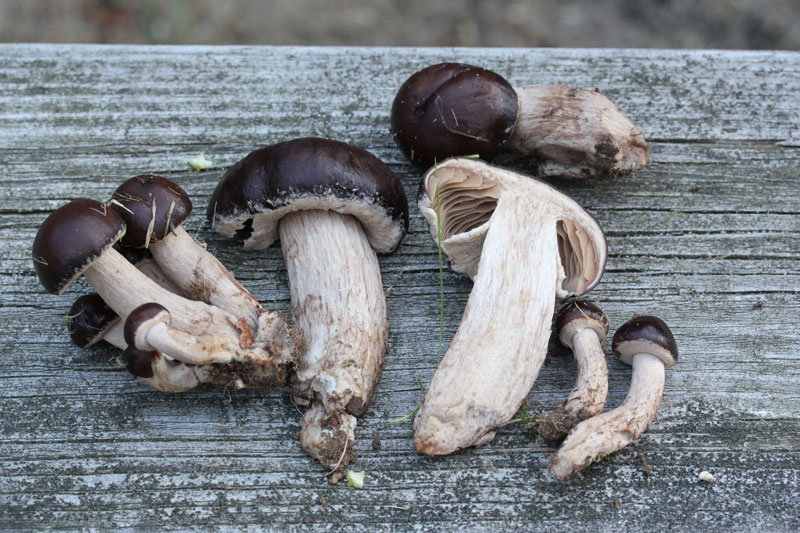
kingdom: Fungi
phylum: Basidiomycota
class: Agaricomycetes
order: Agaricales
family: Tubariaceae
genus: Cyclocybe
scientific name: Cyclocybe erebia
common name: mørk agerhat
